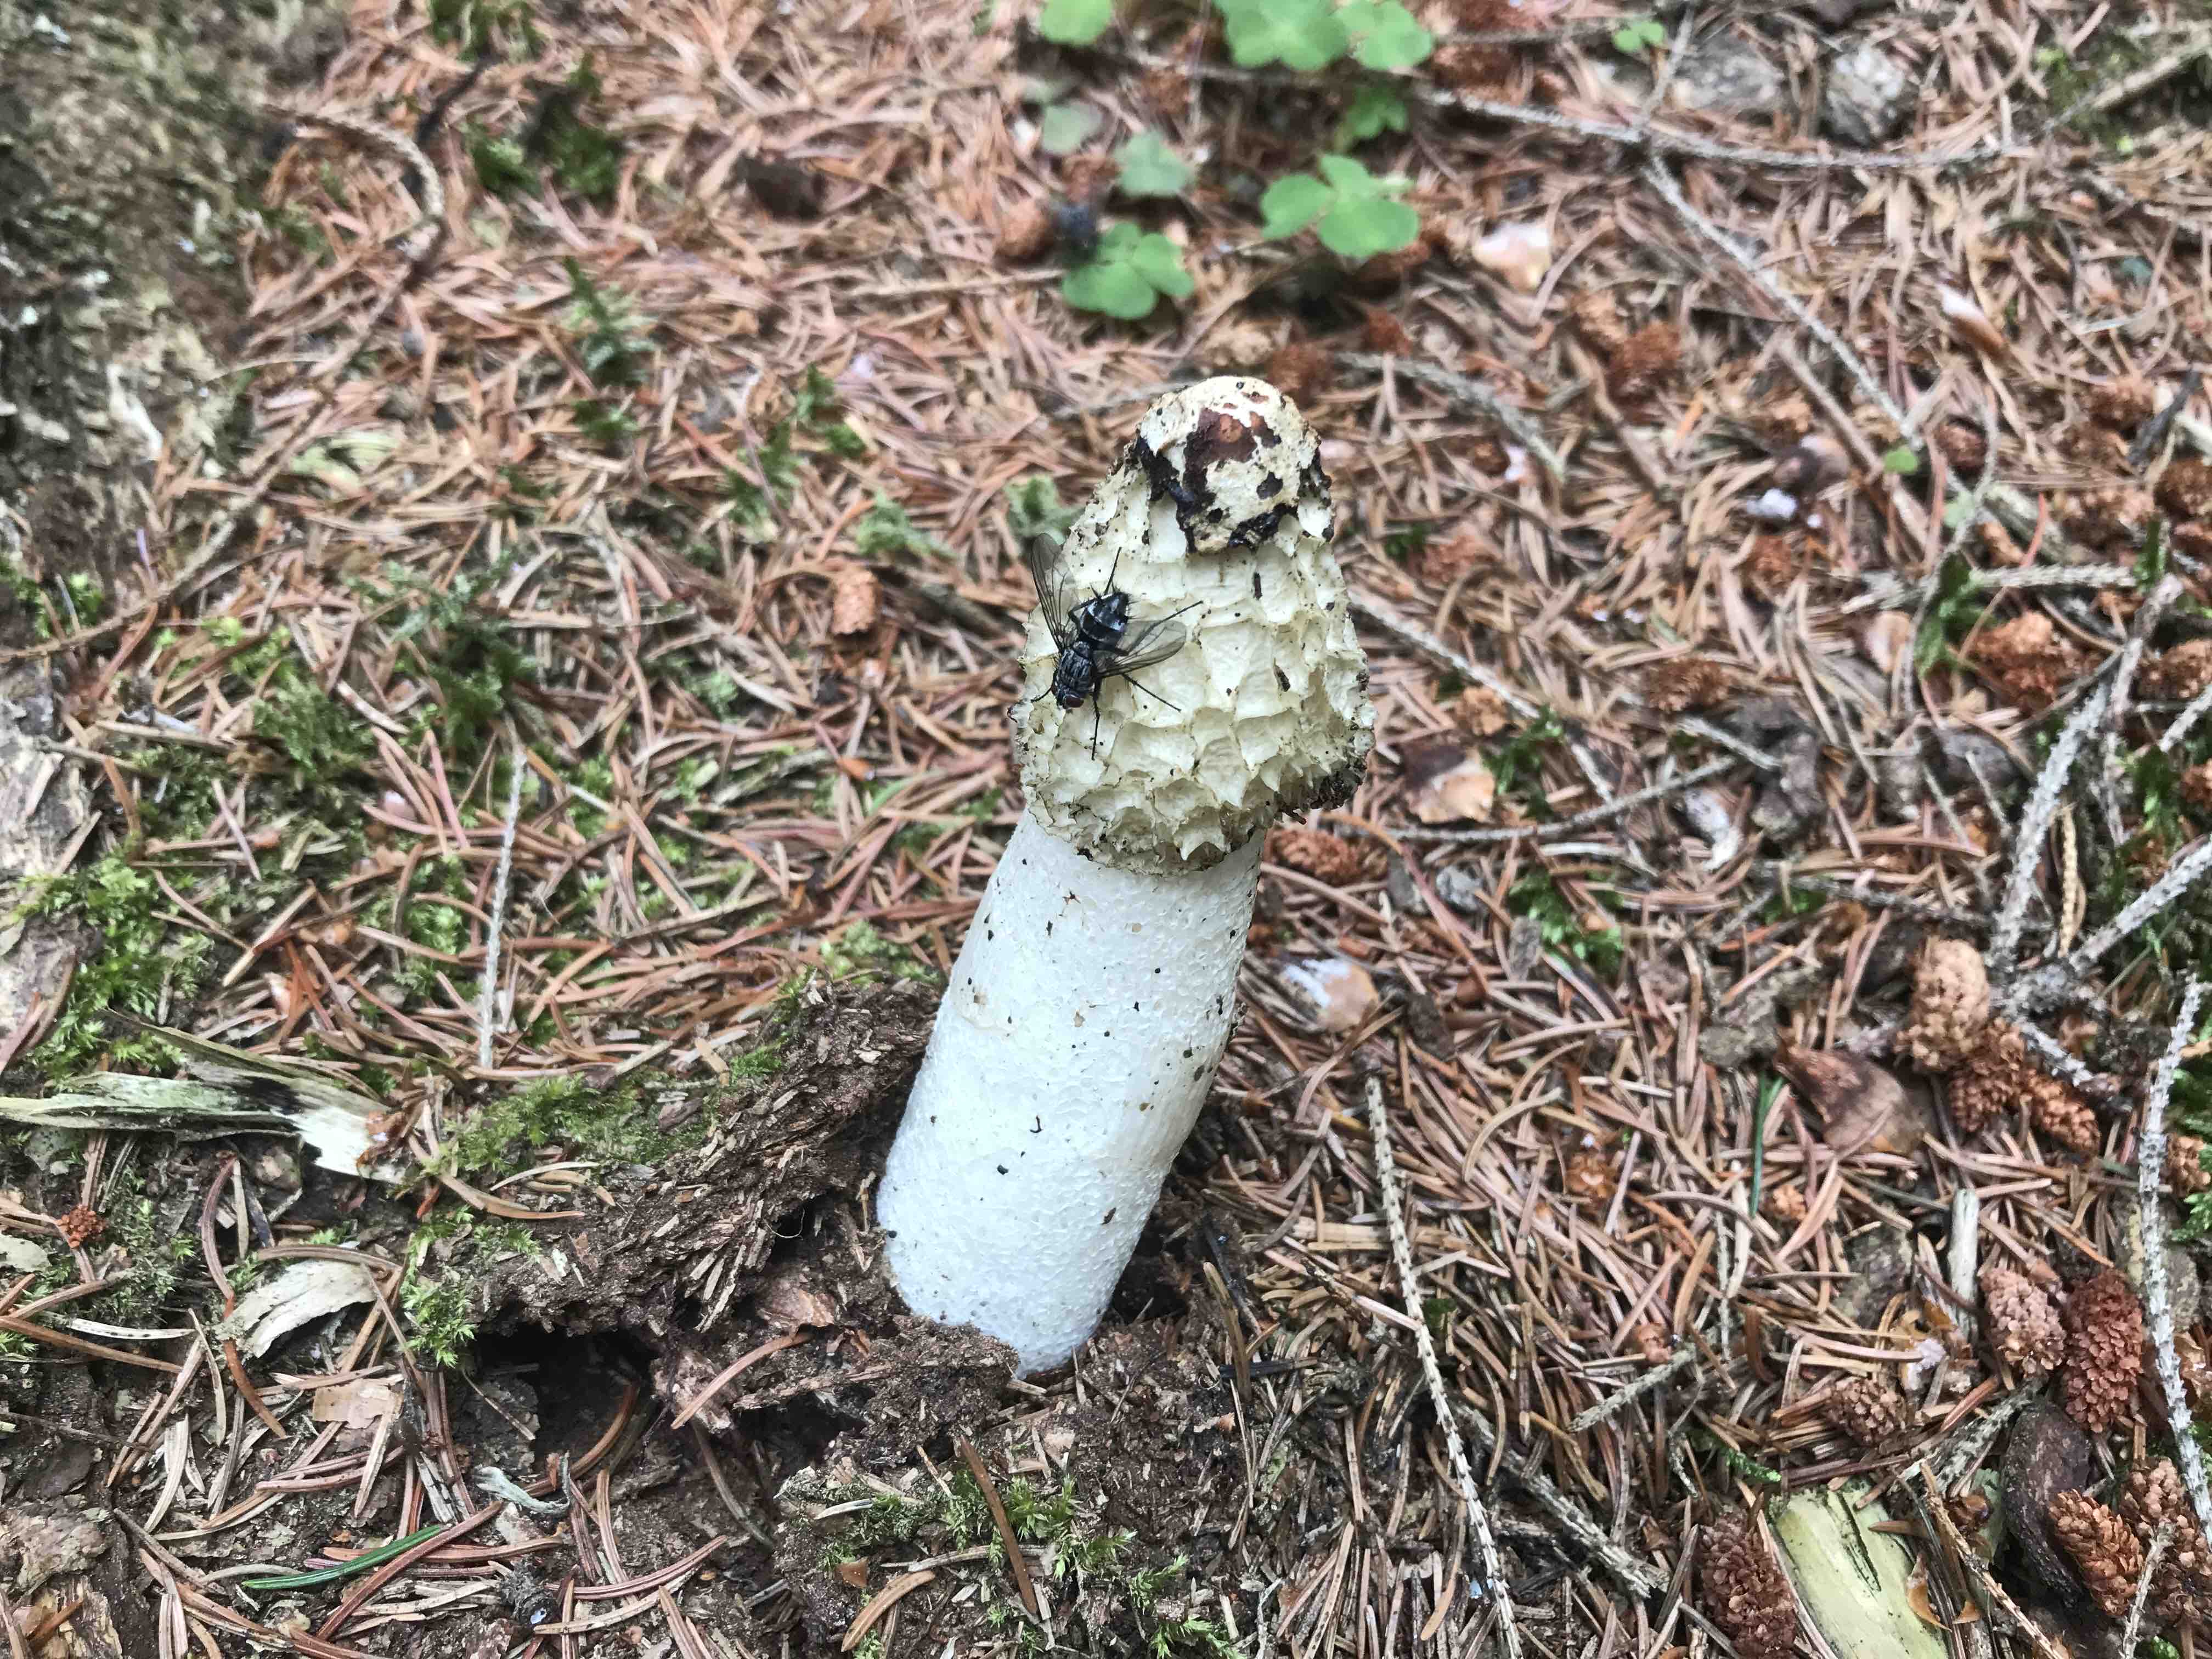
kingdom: Fungi
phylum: Basidiomycota
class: Agaricomycetes
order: Phallales
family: Phallaceae
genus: Phallus
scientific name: Phallus impudicus
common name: almindelig stinksvamp
